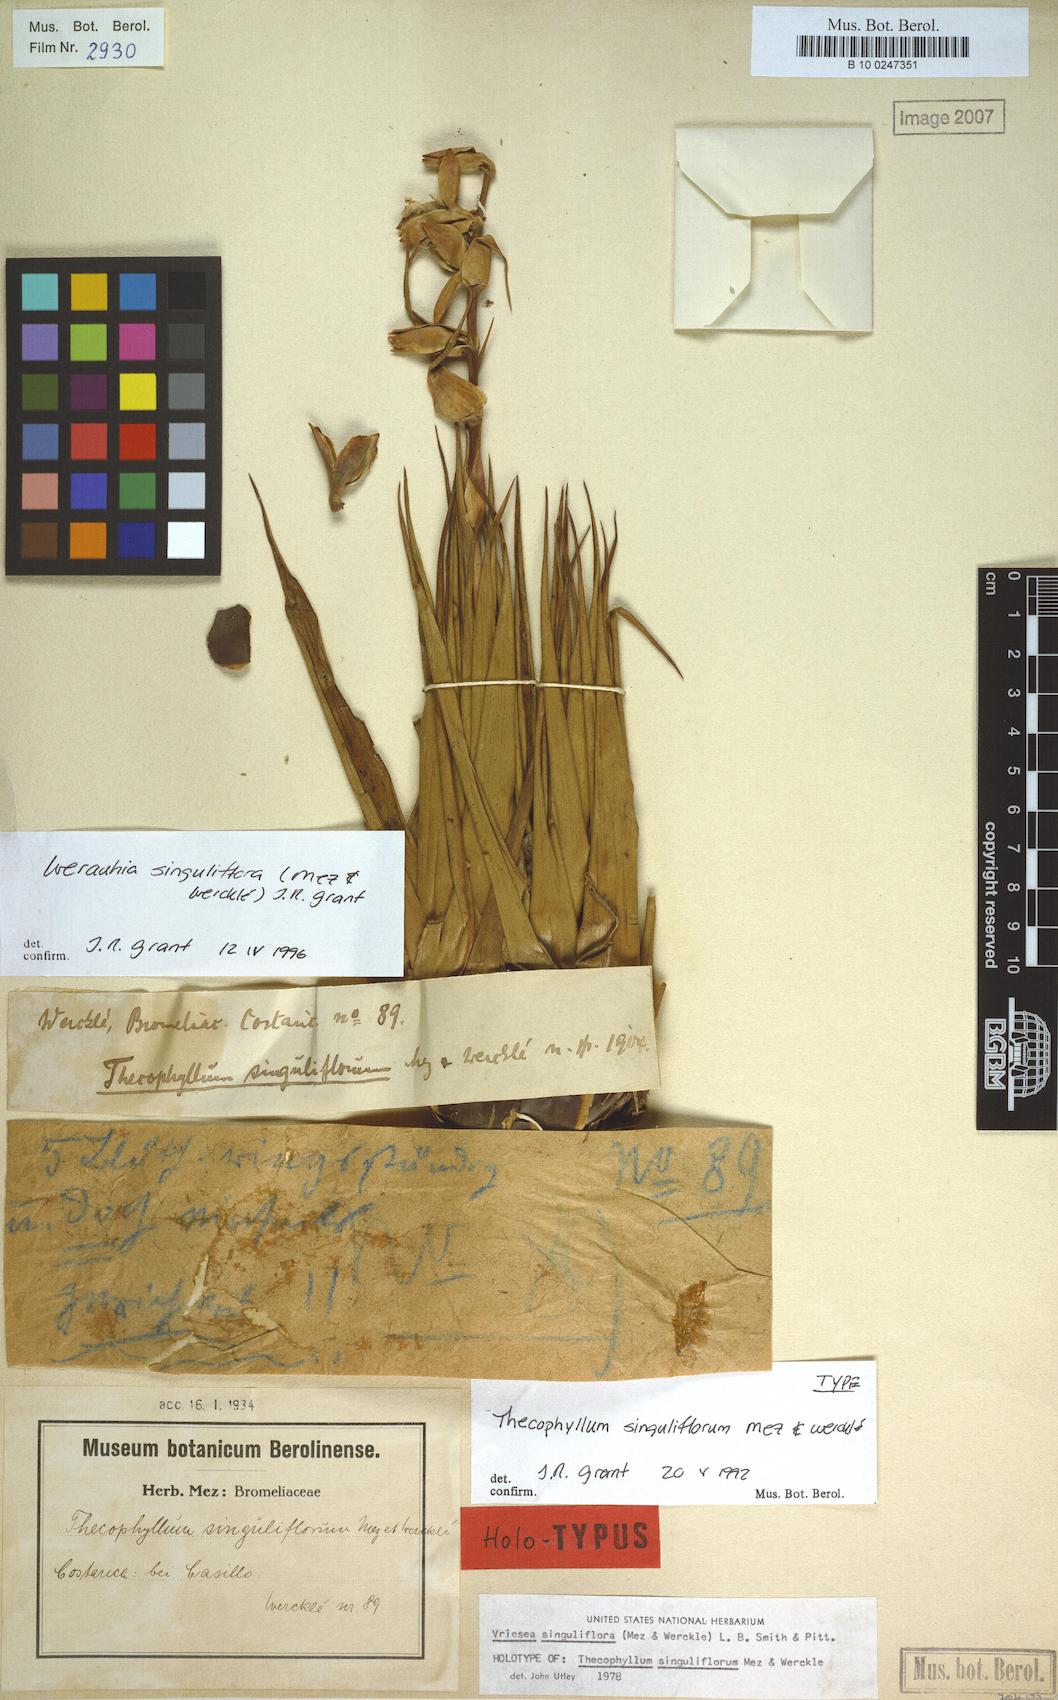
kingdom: Plantae
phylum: Tracheophyta
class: Liliopsida
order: Poales
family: Bromeliaceae
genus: Werauhia
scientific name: Werauhia singuliflora
